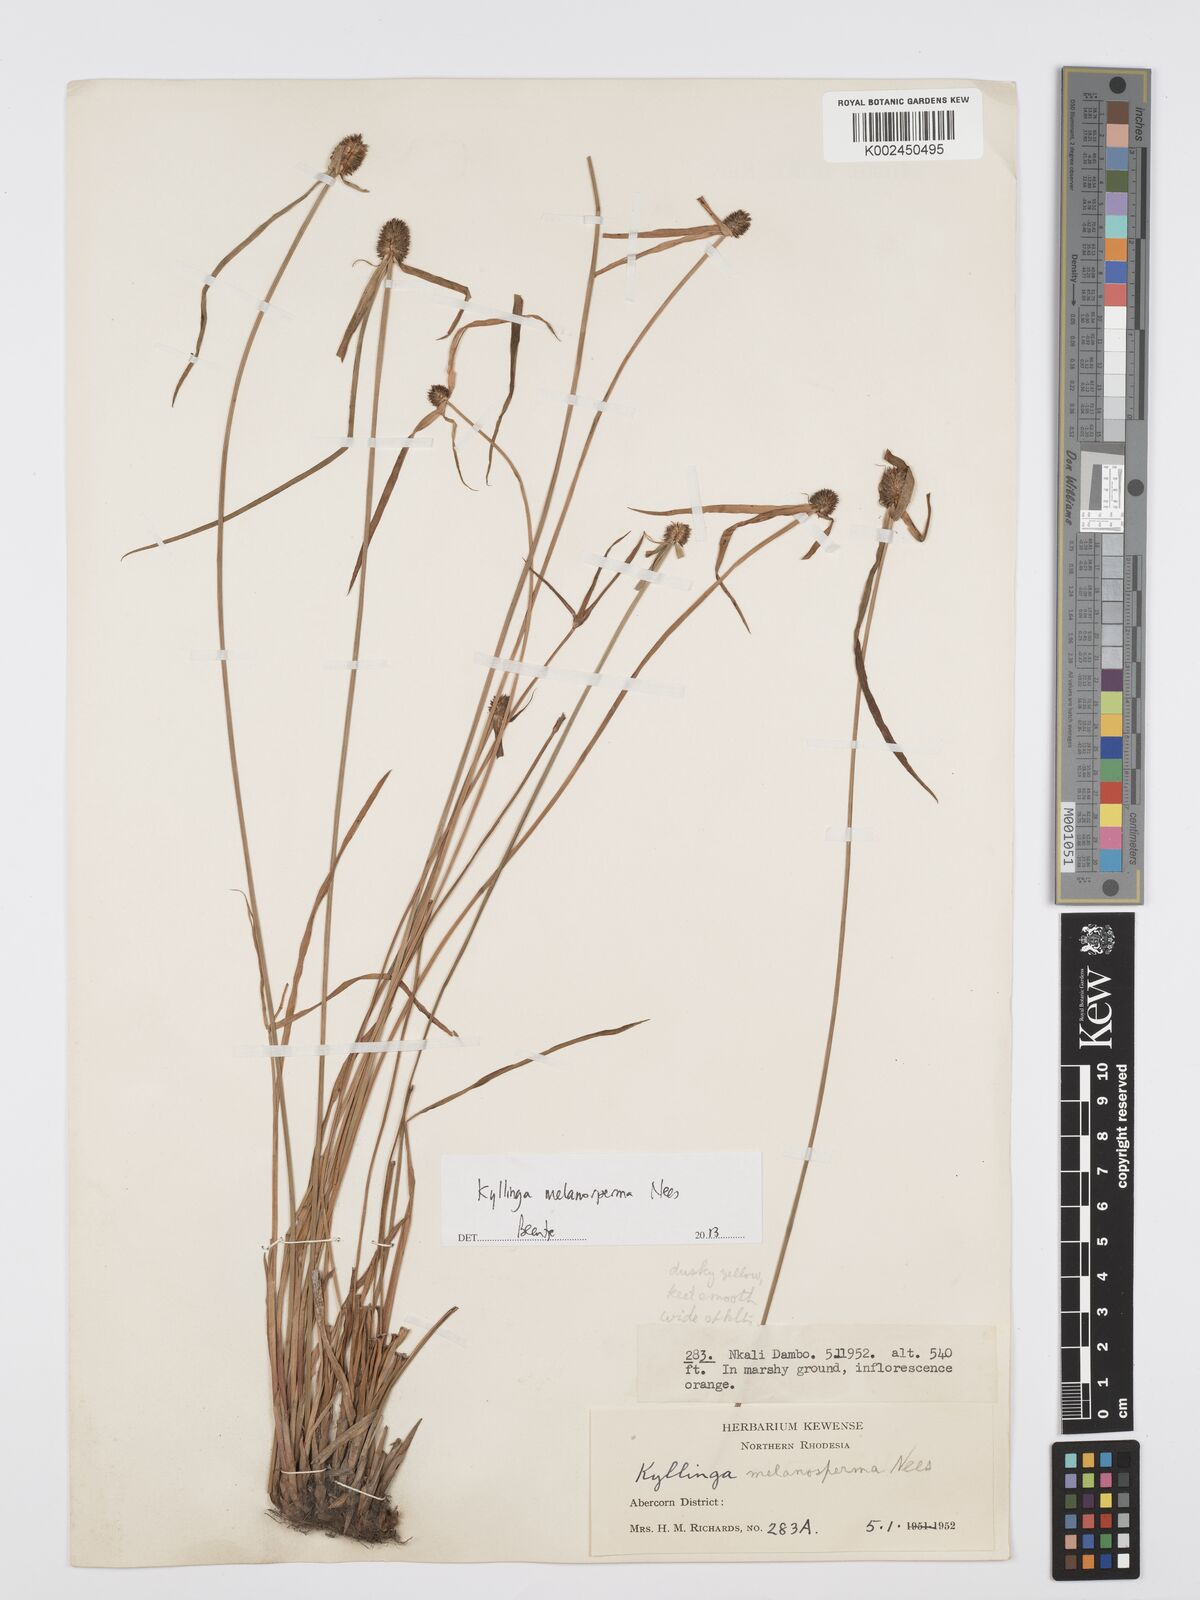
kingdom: Plantae
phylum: Tracheophyta
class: Liliopsida
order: Poales
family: Cyperaceae
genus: Cyperus
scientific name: Cyperus melanospermus
